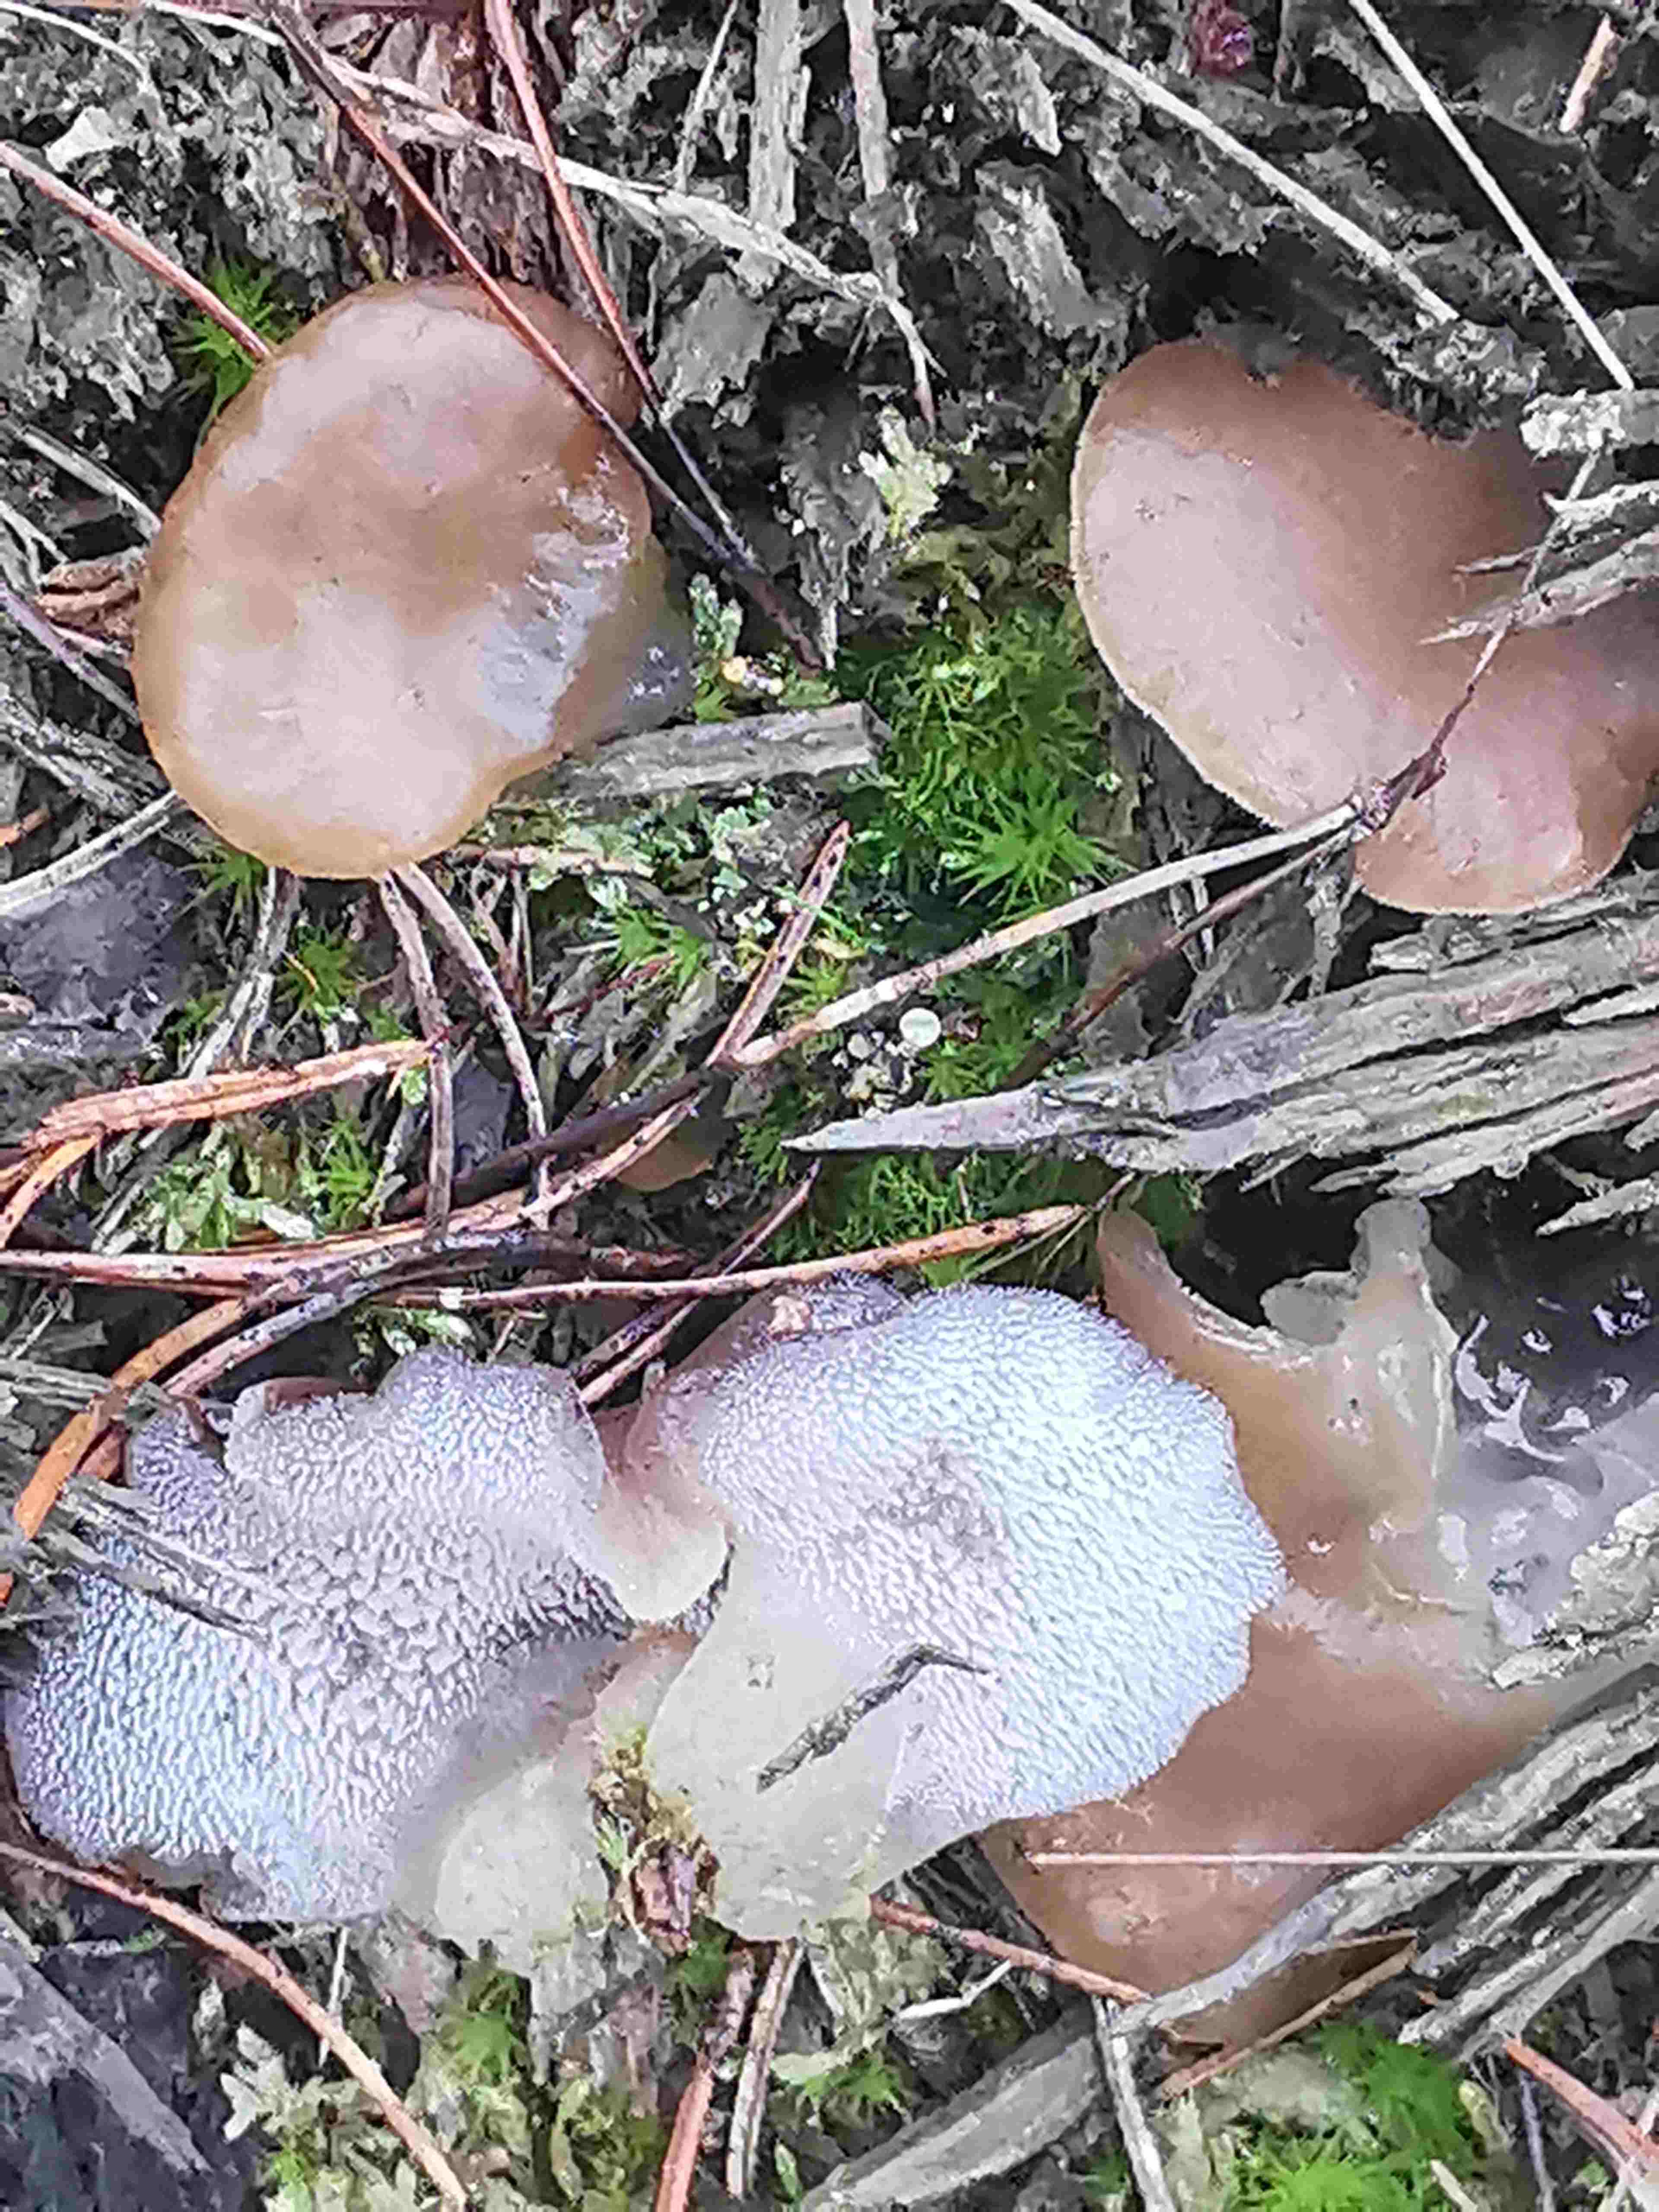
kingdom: Fungi
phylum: Basidiomycota
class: Agaricomycetes
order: Auriculariales
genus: Pseudohydnum
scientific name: Pseudohydnum gelatinosum
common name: bævretand
